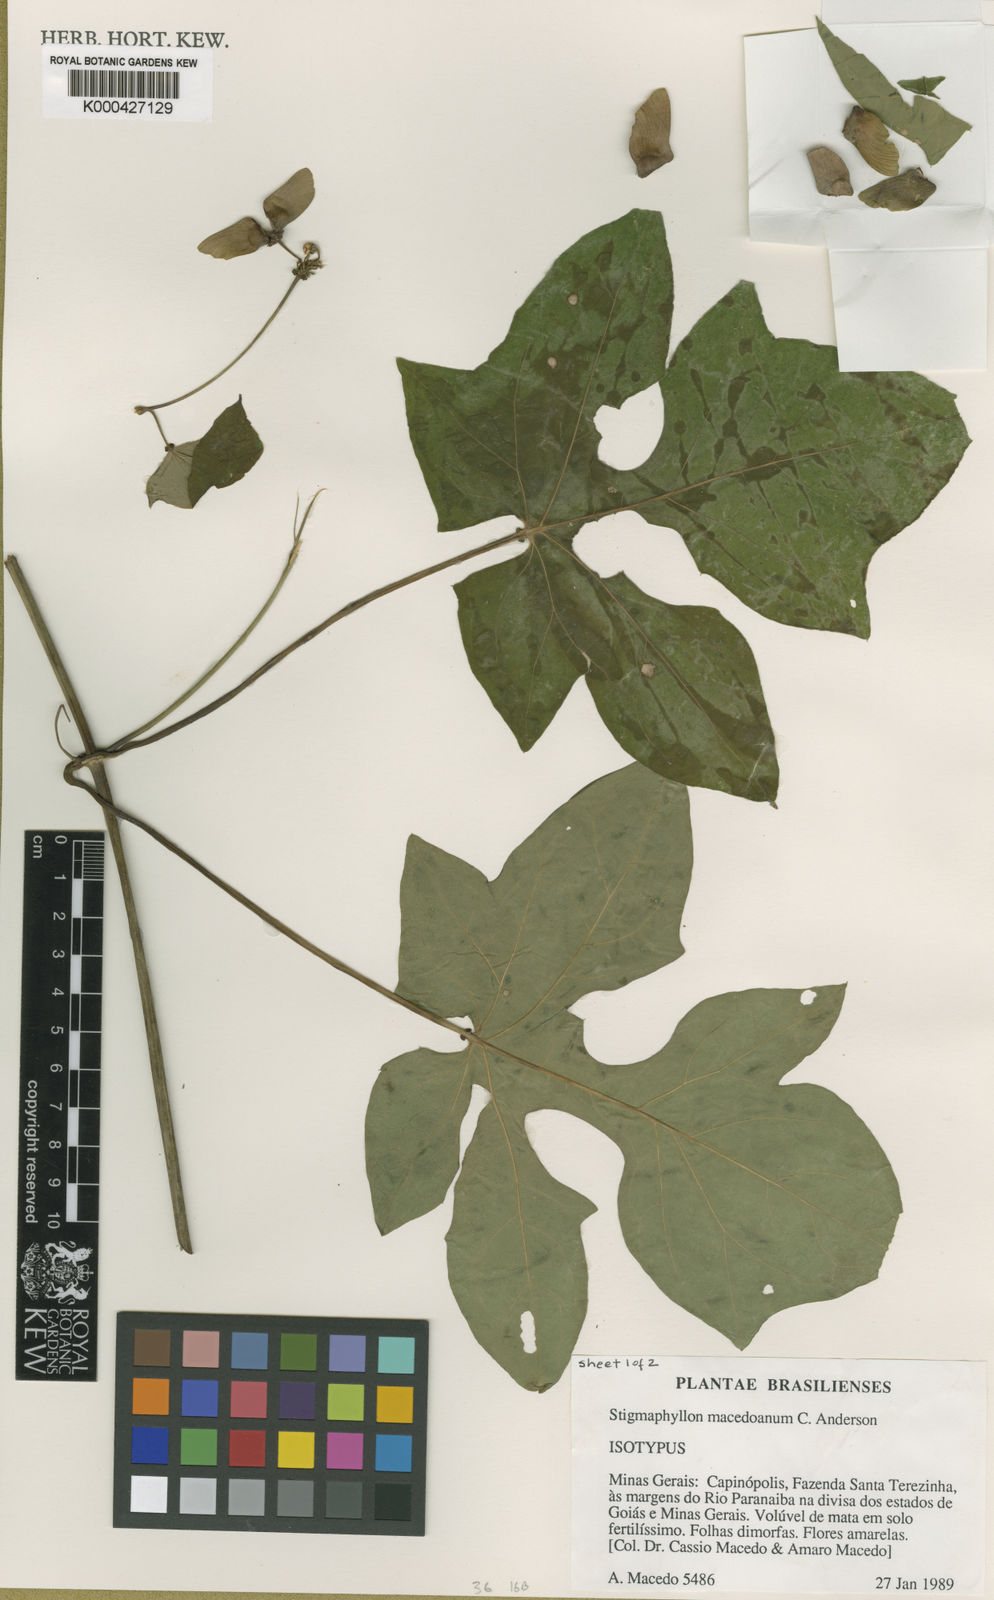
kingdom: Plantae
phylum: Tracheophyta
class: Magnoliopsida
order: Malpighiales
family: Malpighiaceae
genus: Stigmaphyllon
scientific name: Stigmaphyllon macedoanum
